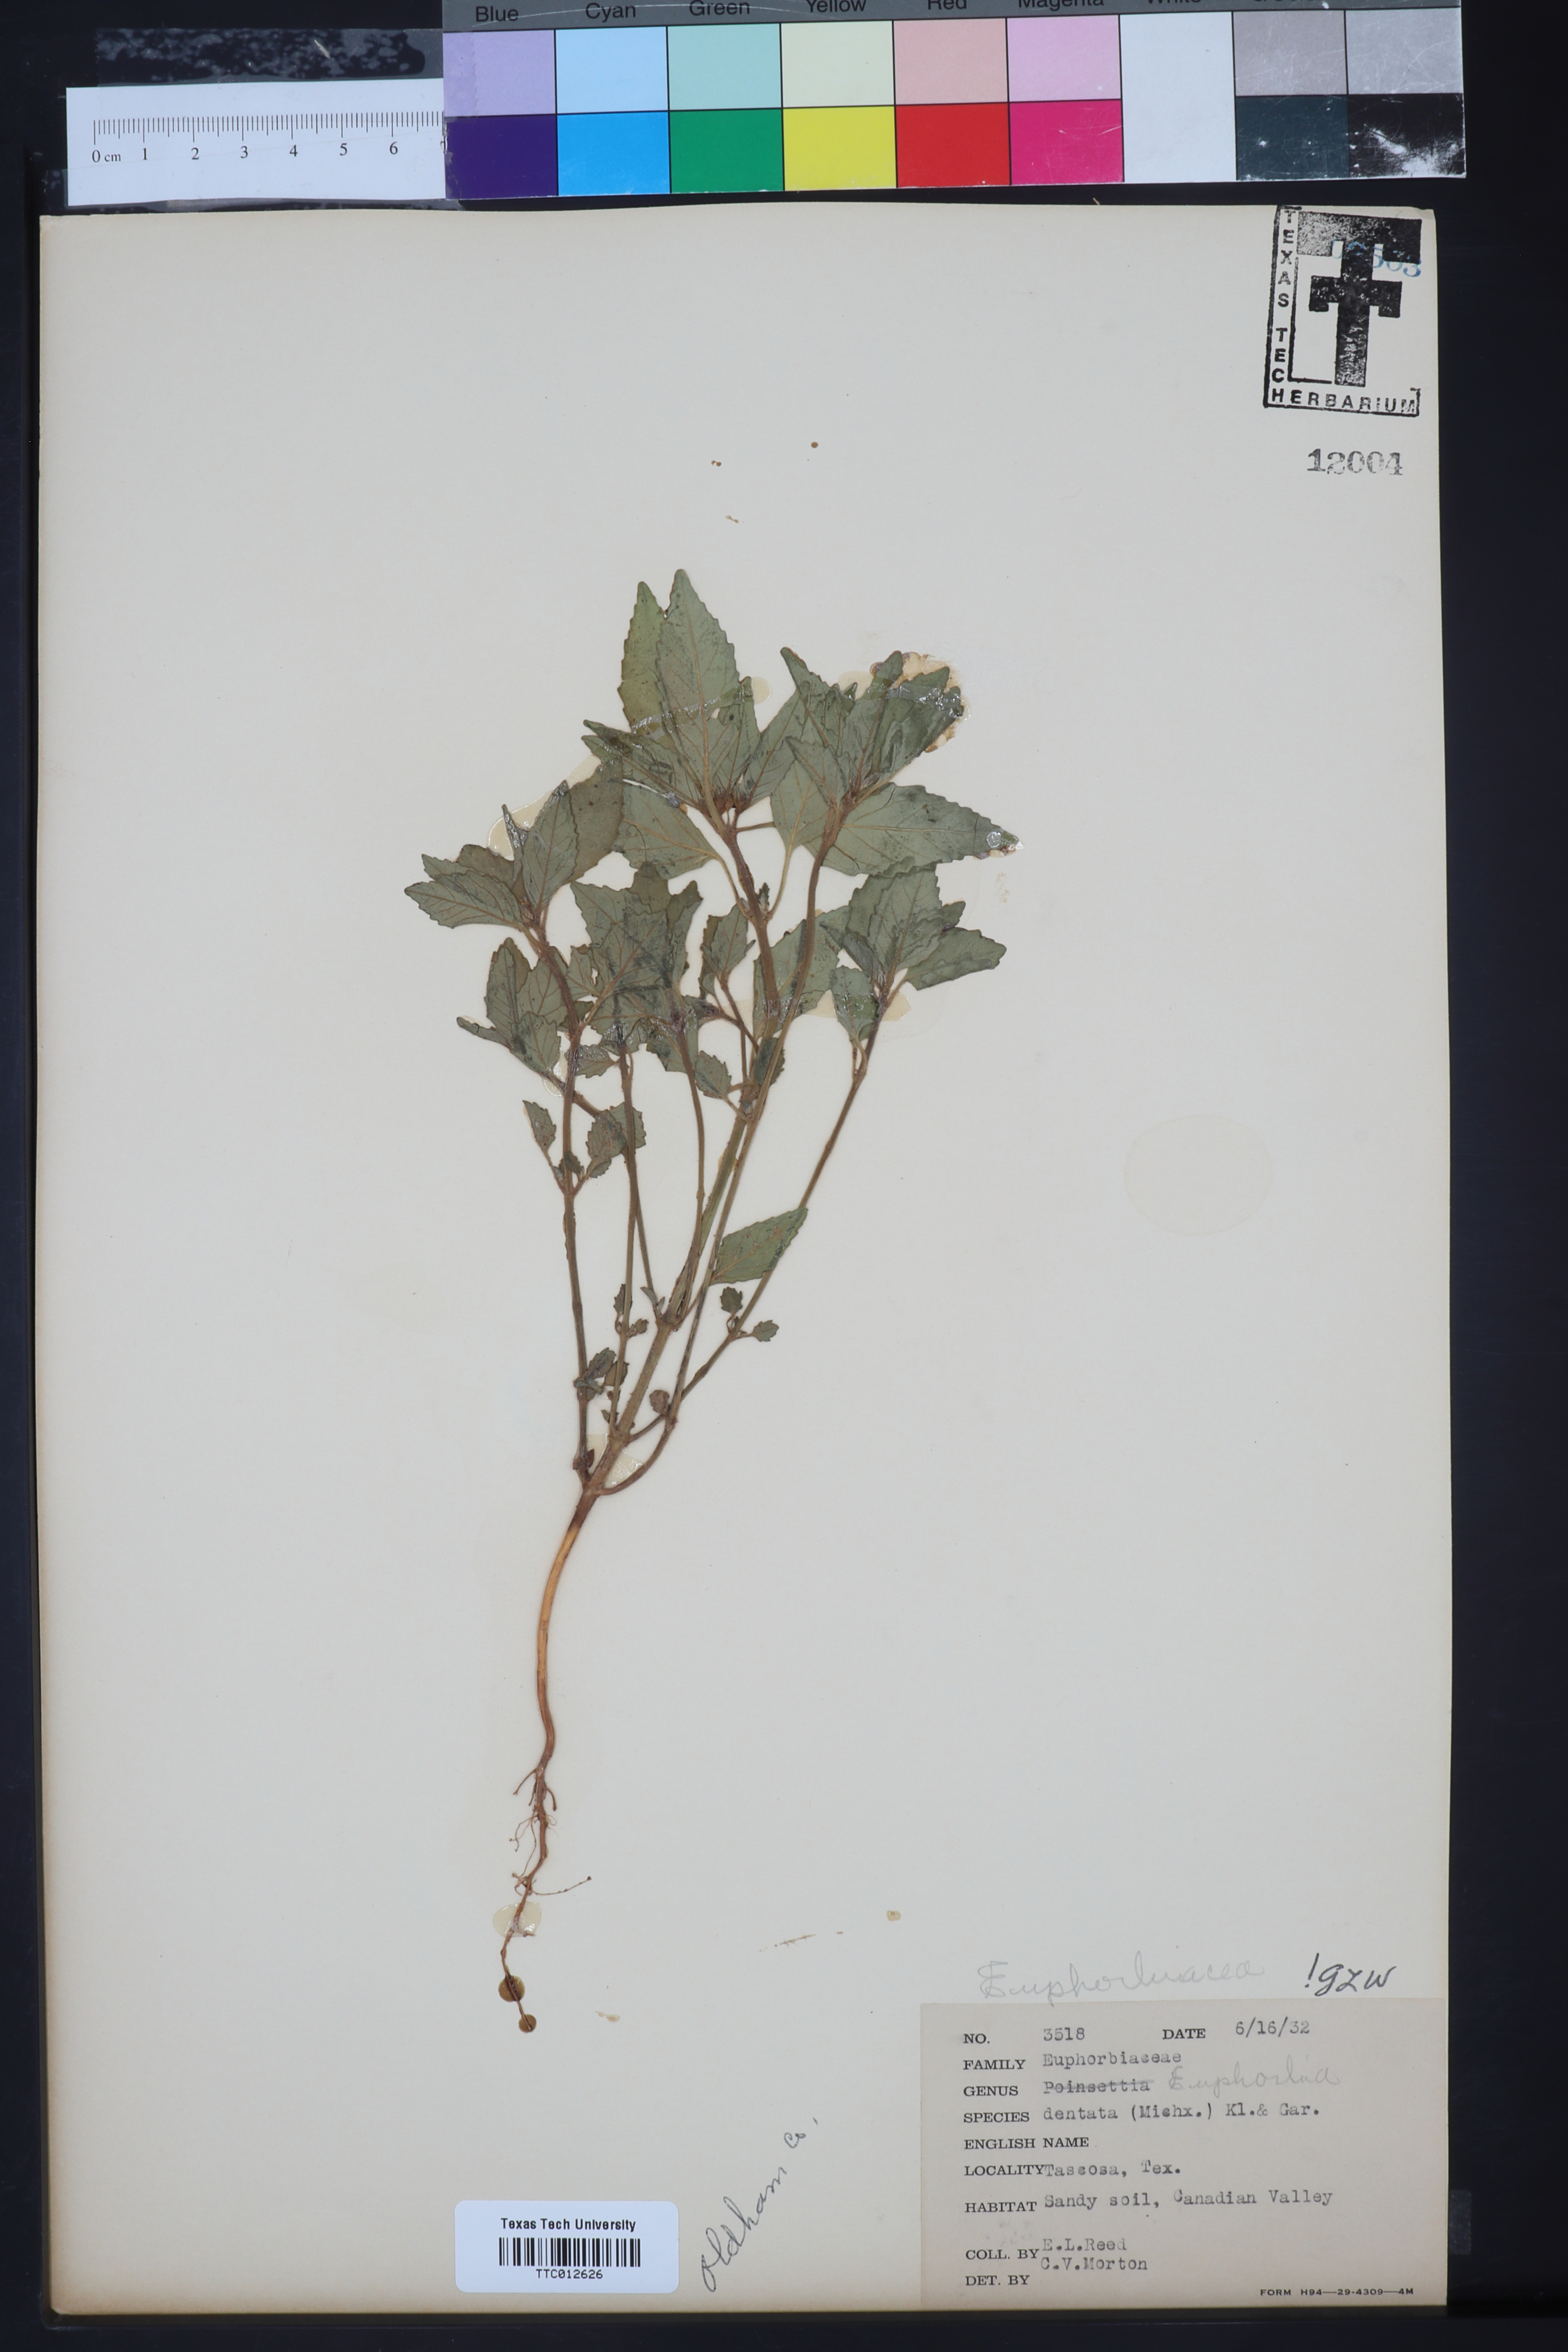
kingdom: Plantae
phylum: Tracheophyta
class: Magnoliopsida
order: Malpighiales
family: Euphorbiaceae
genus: Euphorbia
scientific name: Euphorbia dentata
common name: Dentate spurge
